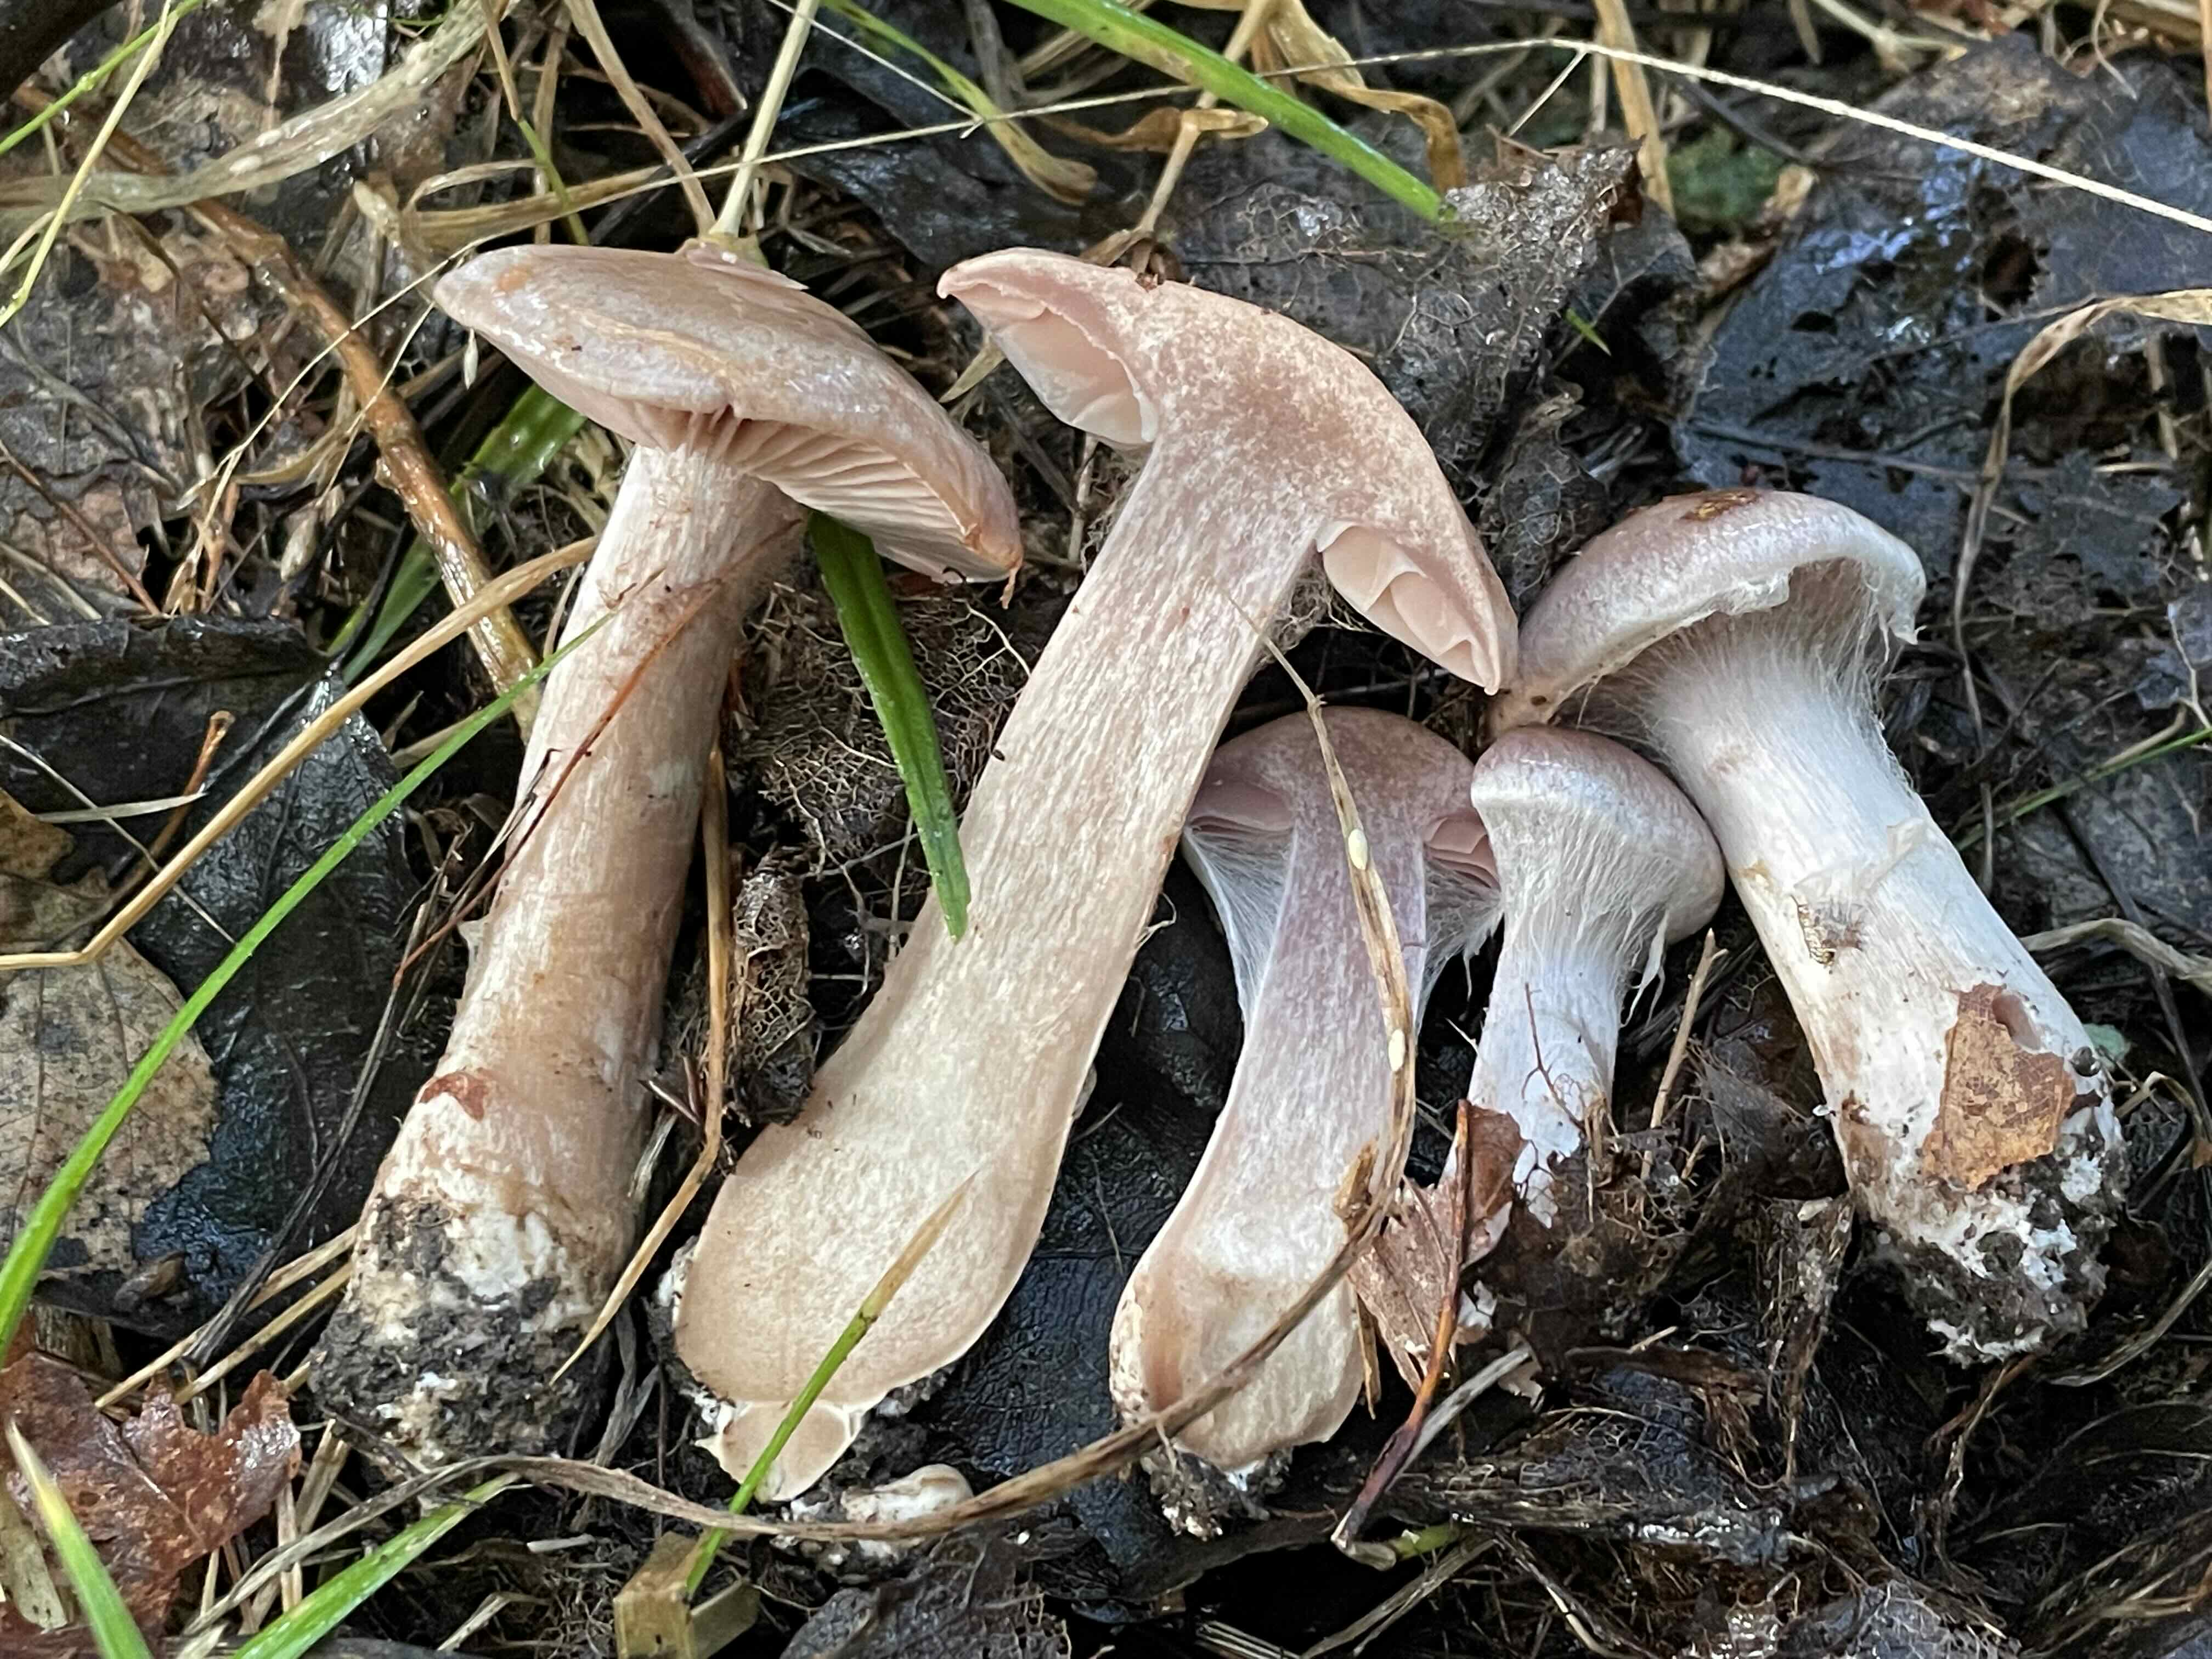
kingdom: Fungi
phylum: Basidiomycota
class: Agaricomycetes
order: Agaricales
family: Cortinariaceae
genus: Cortinarius
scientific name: Cortinarius
